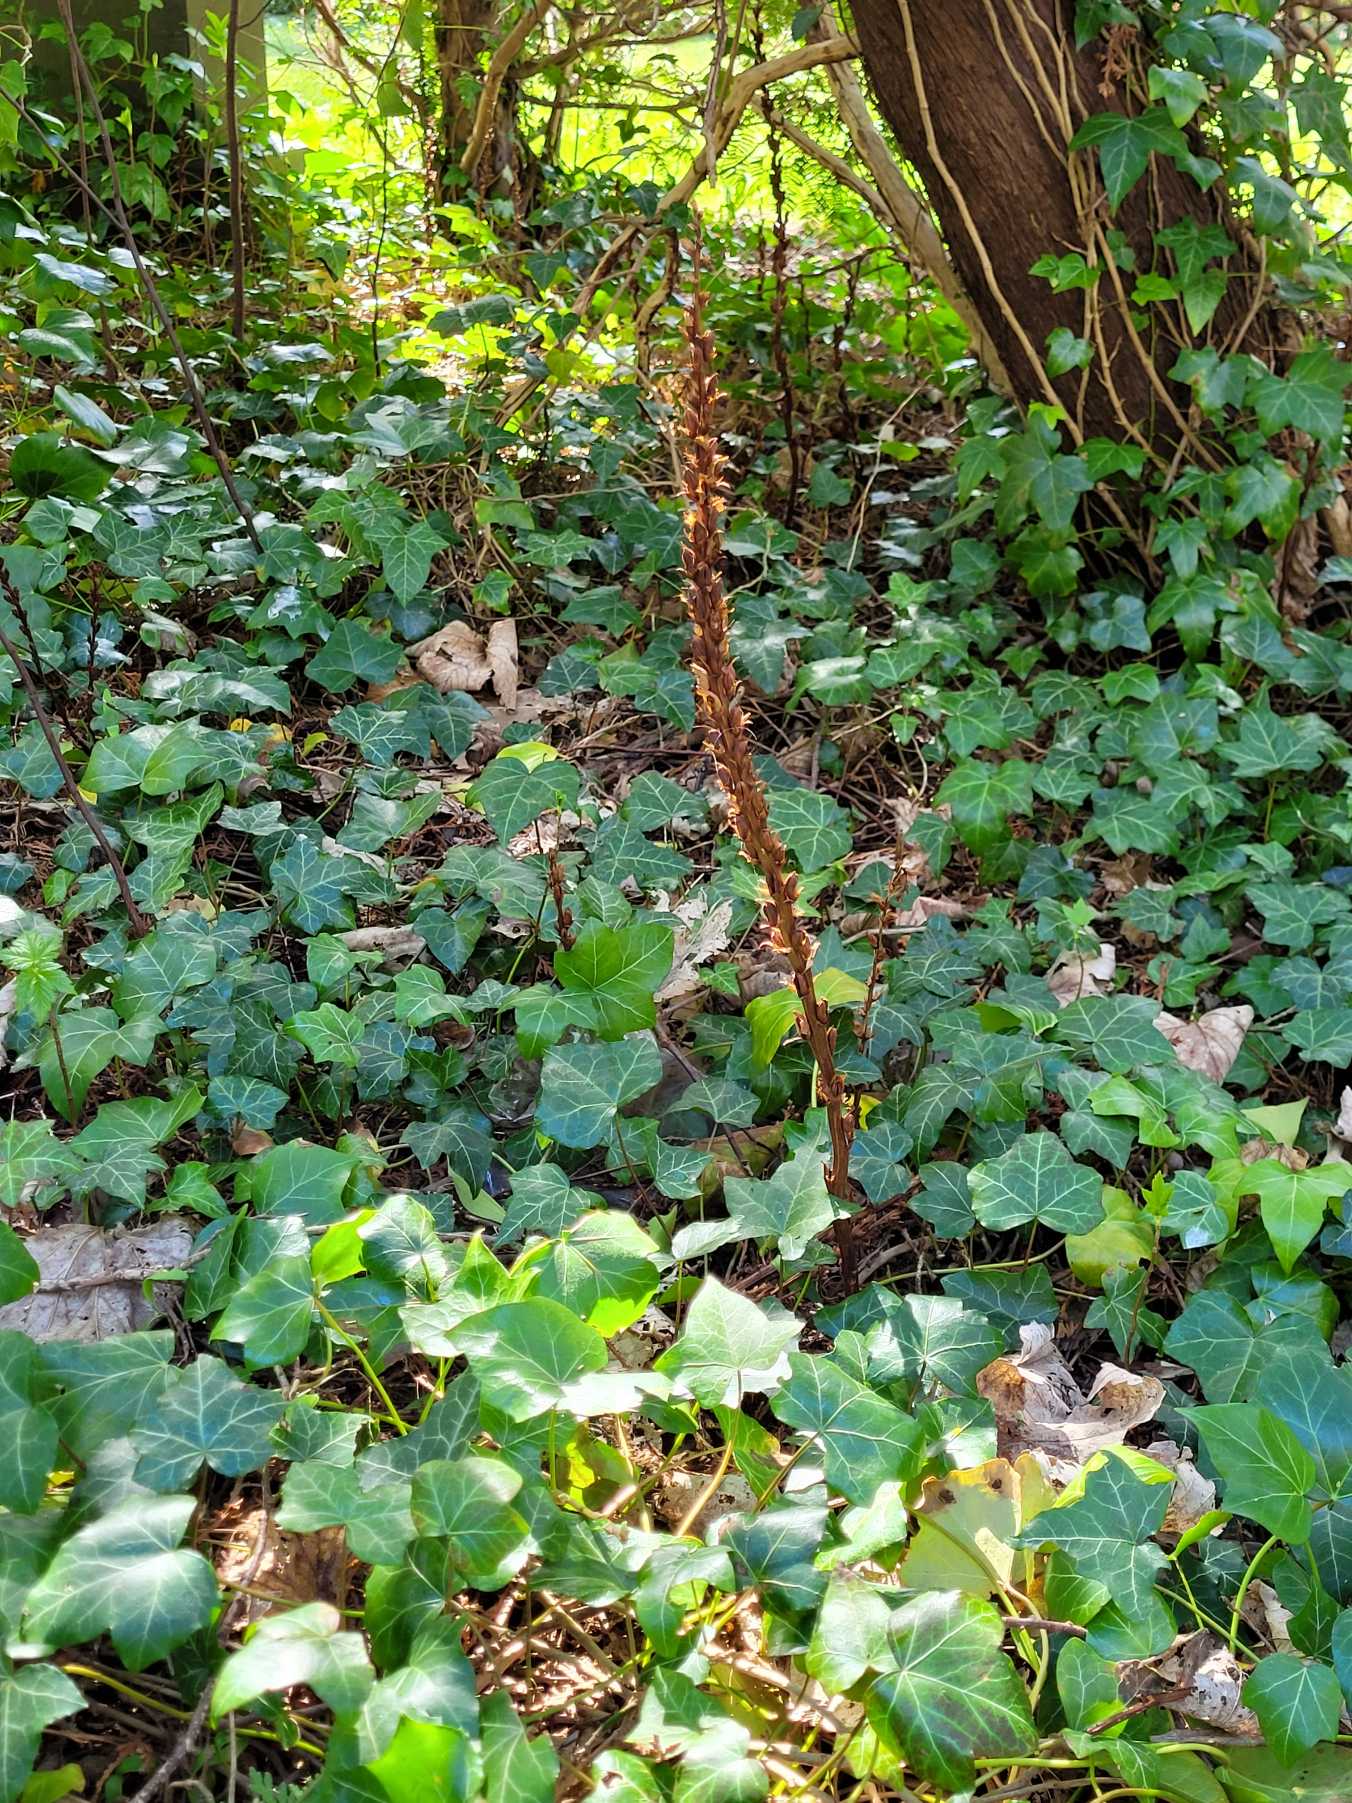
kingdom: Plantae
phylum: Tracheophyta
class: Magnoliopsida
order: Lamiales
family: Orobanchaceae
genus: Orobanche
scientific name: Orobanche hederae
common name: Vedbend-gyvelkvæler
